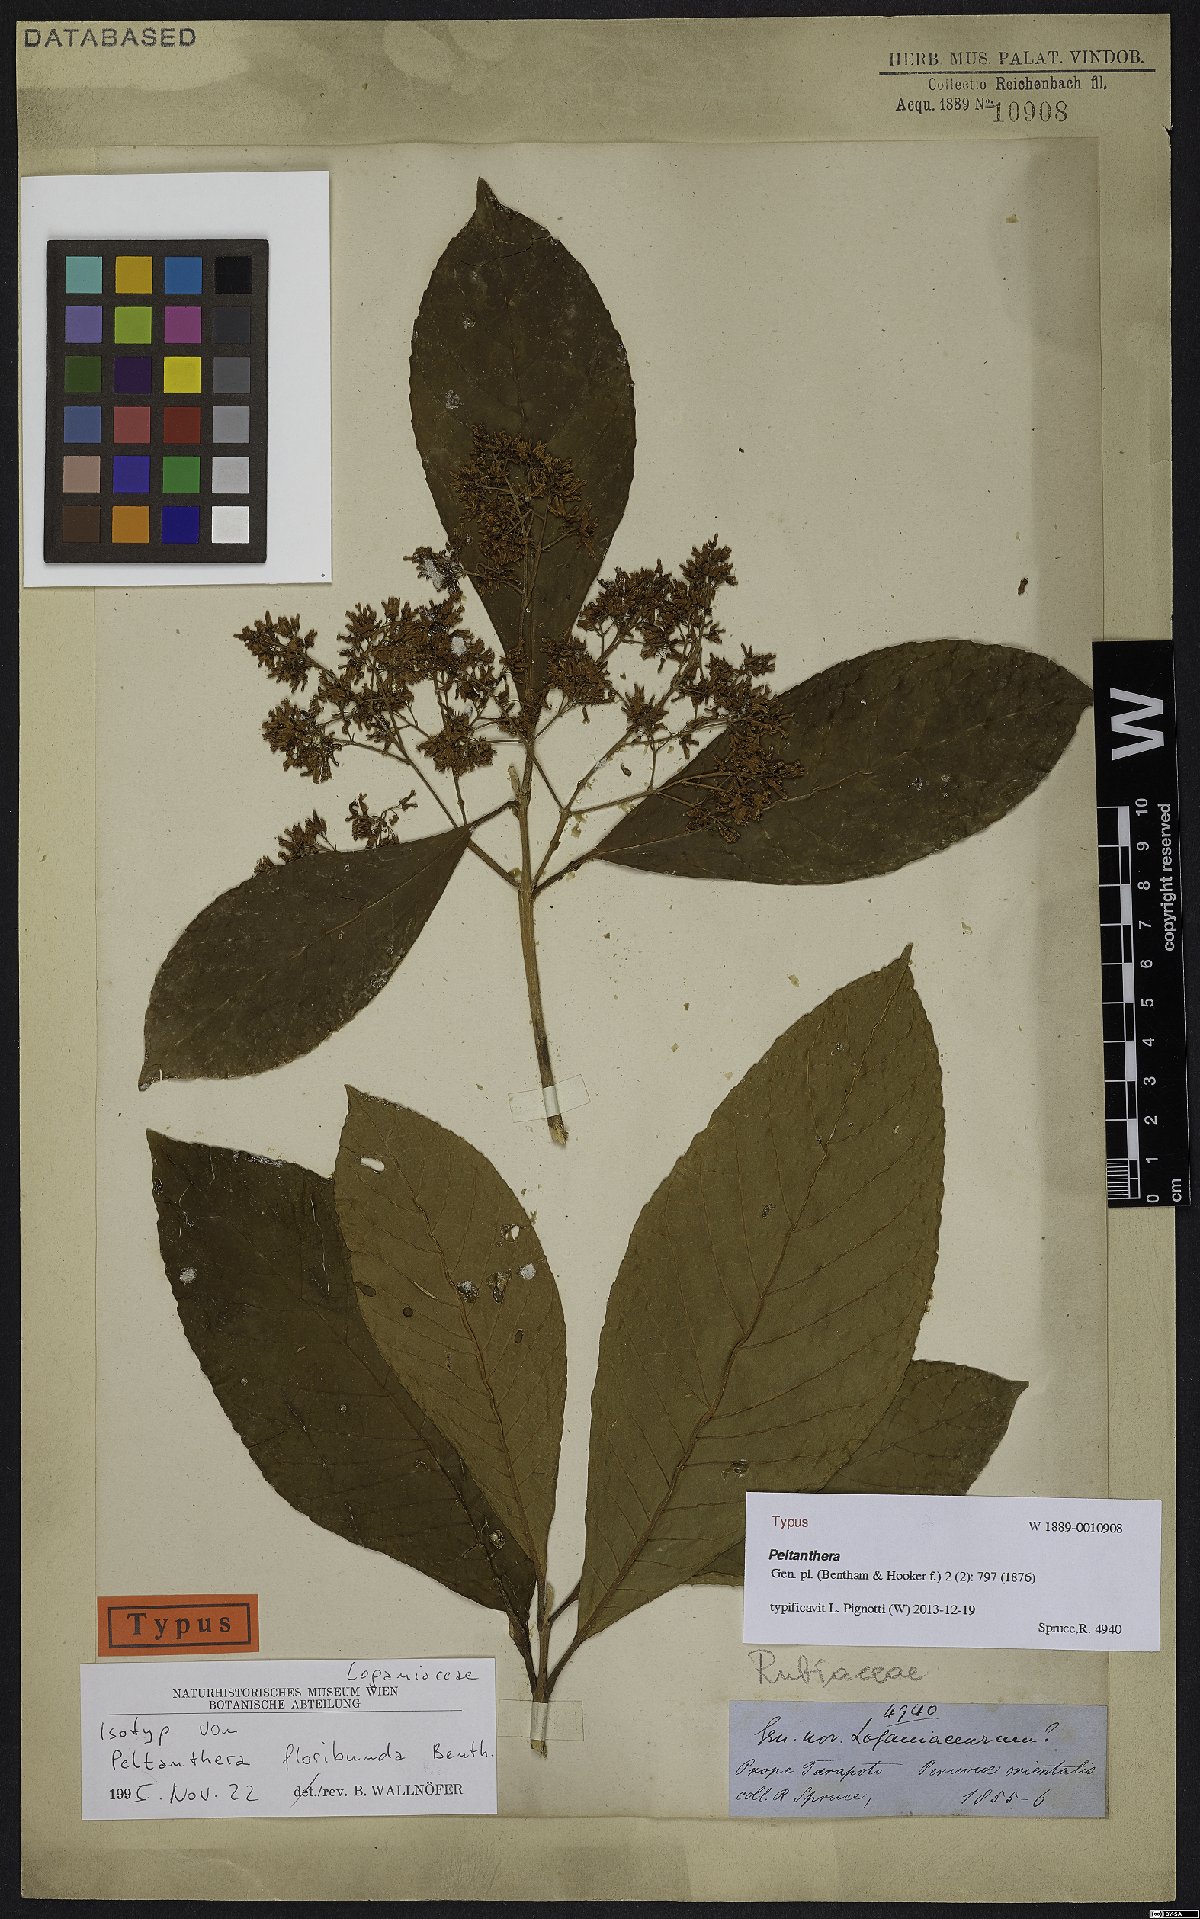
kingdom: Plantae
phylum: Tracheophyta
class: Magnoliopsida
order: Lamiales
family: Peltantheraceae
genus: Peltanthera
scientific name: Peltanthera floribunda
